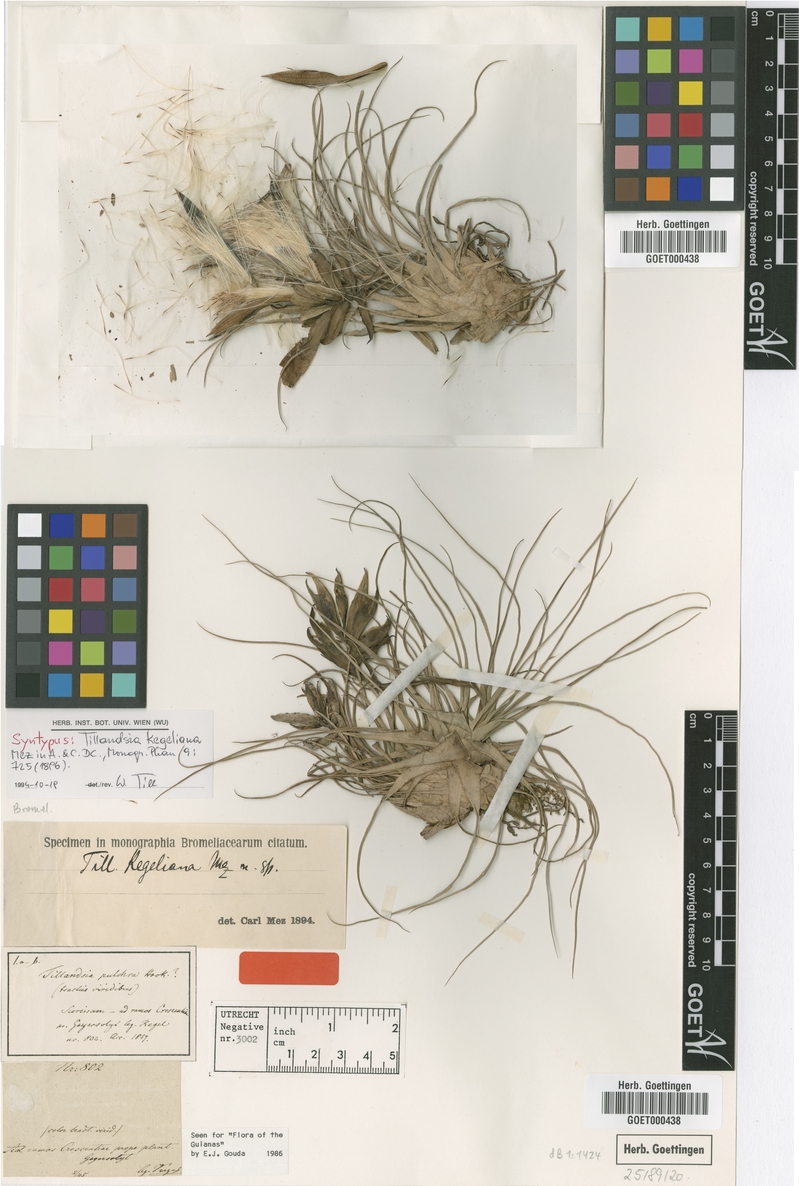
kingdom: Plantae
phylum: Tracheophyta
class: Liliopsida
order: Poales
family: Bromeliaceae
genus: Tillandsia
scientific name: Tillandsia kegeliana
